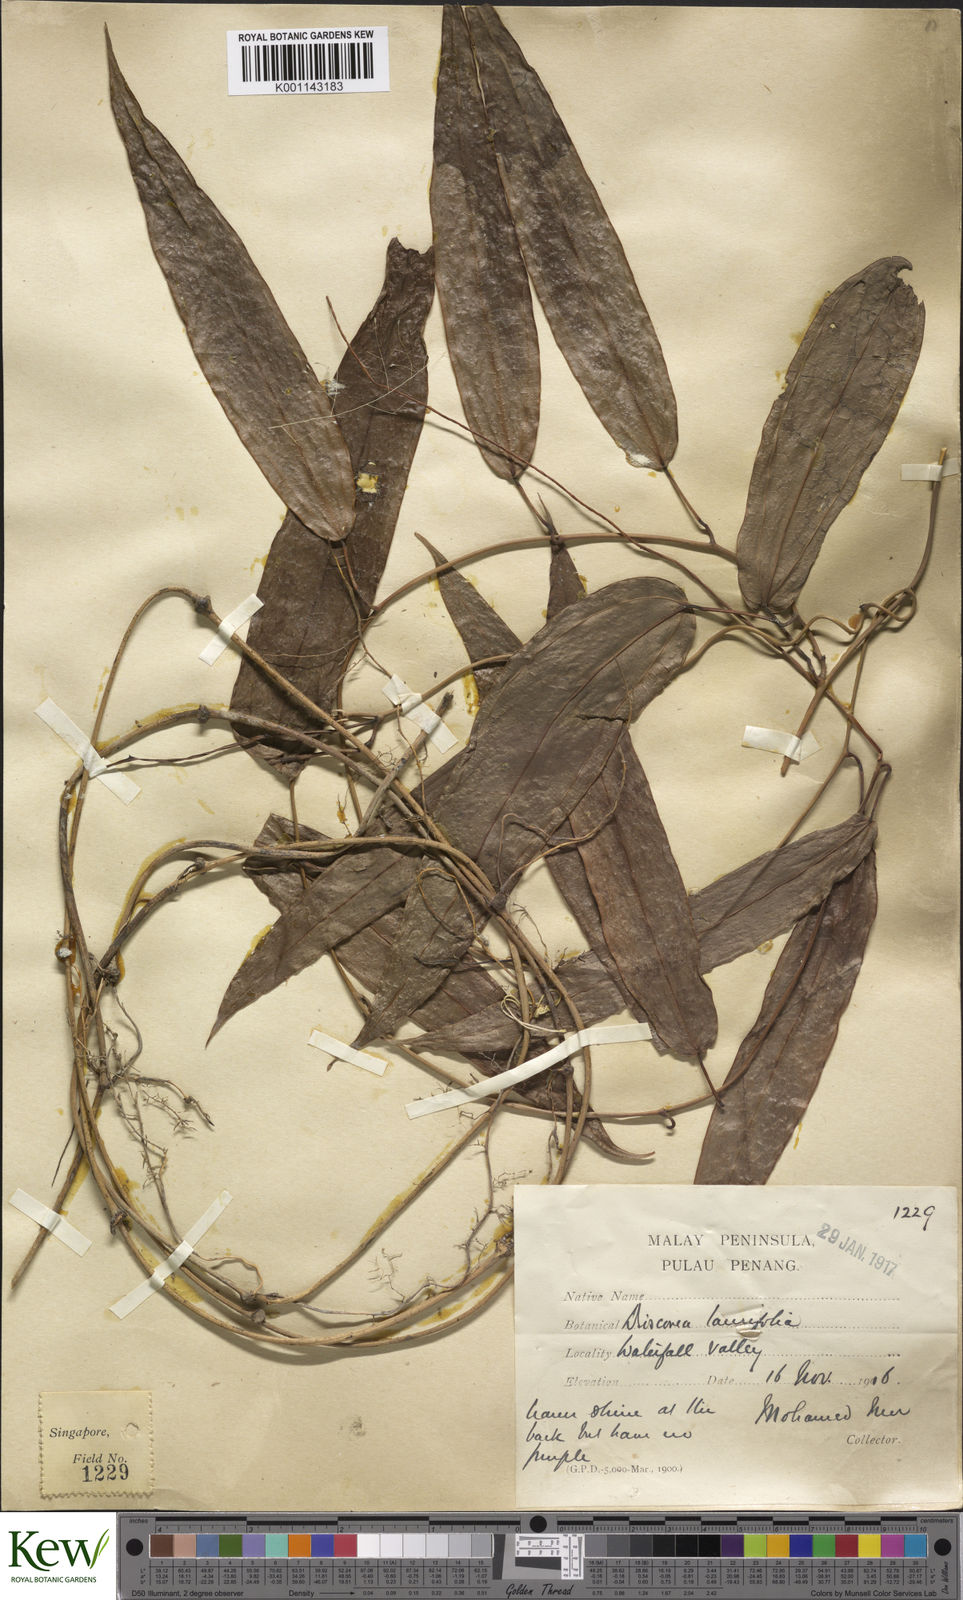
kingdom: Plantae
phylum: Tracheophyta
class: Liliopsida
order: Dioscoreales
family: Dioscoreaceae
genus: Dioscorea
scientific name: Dioscorea laurifolia
